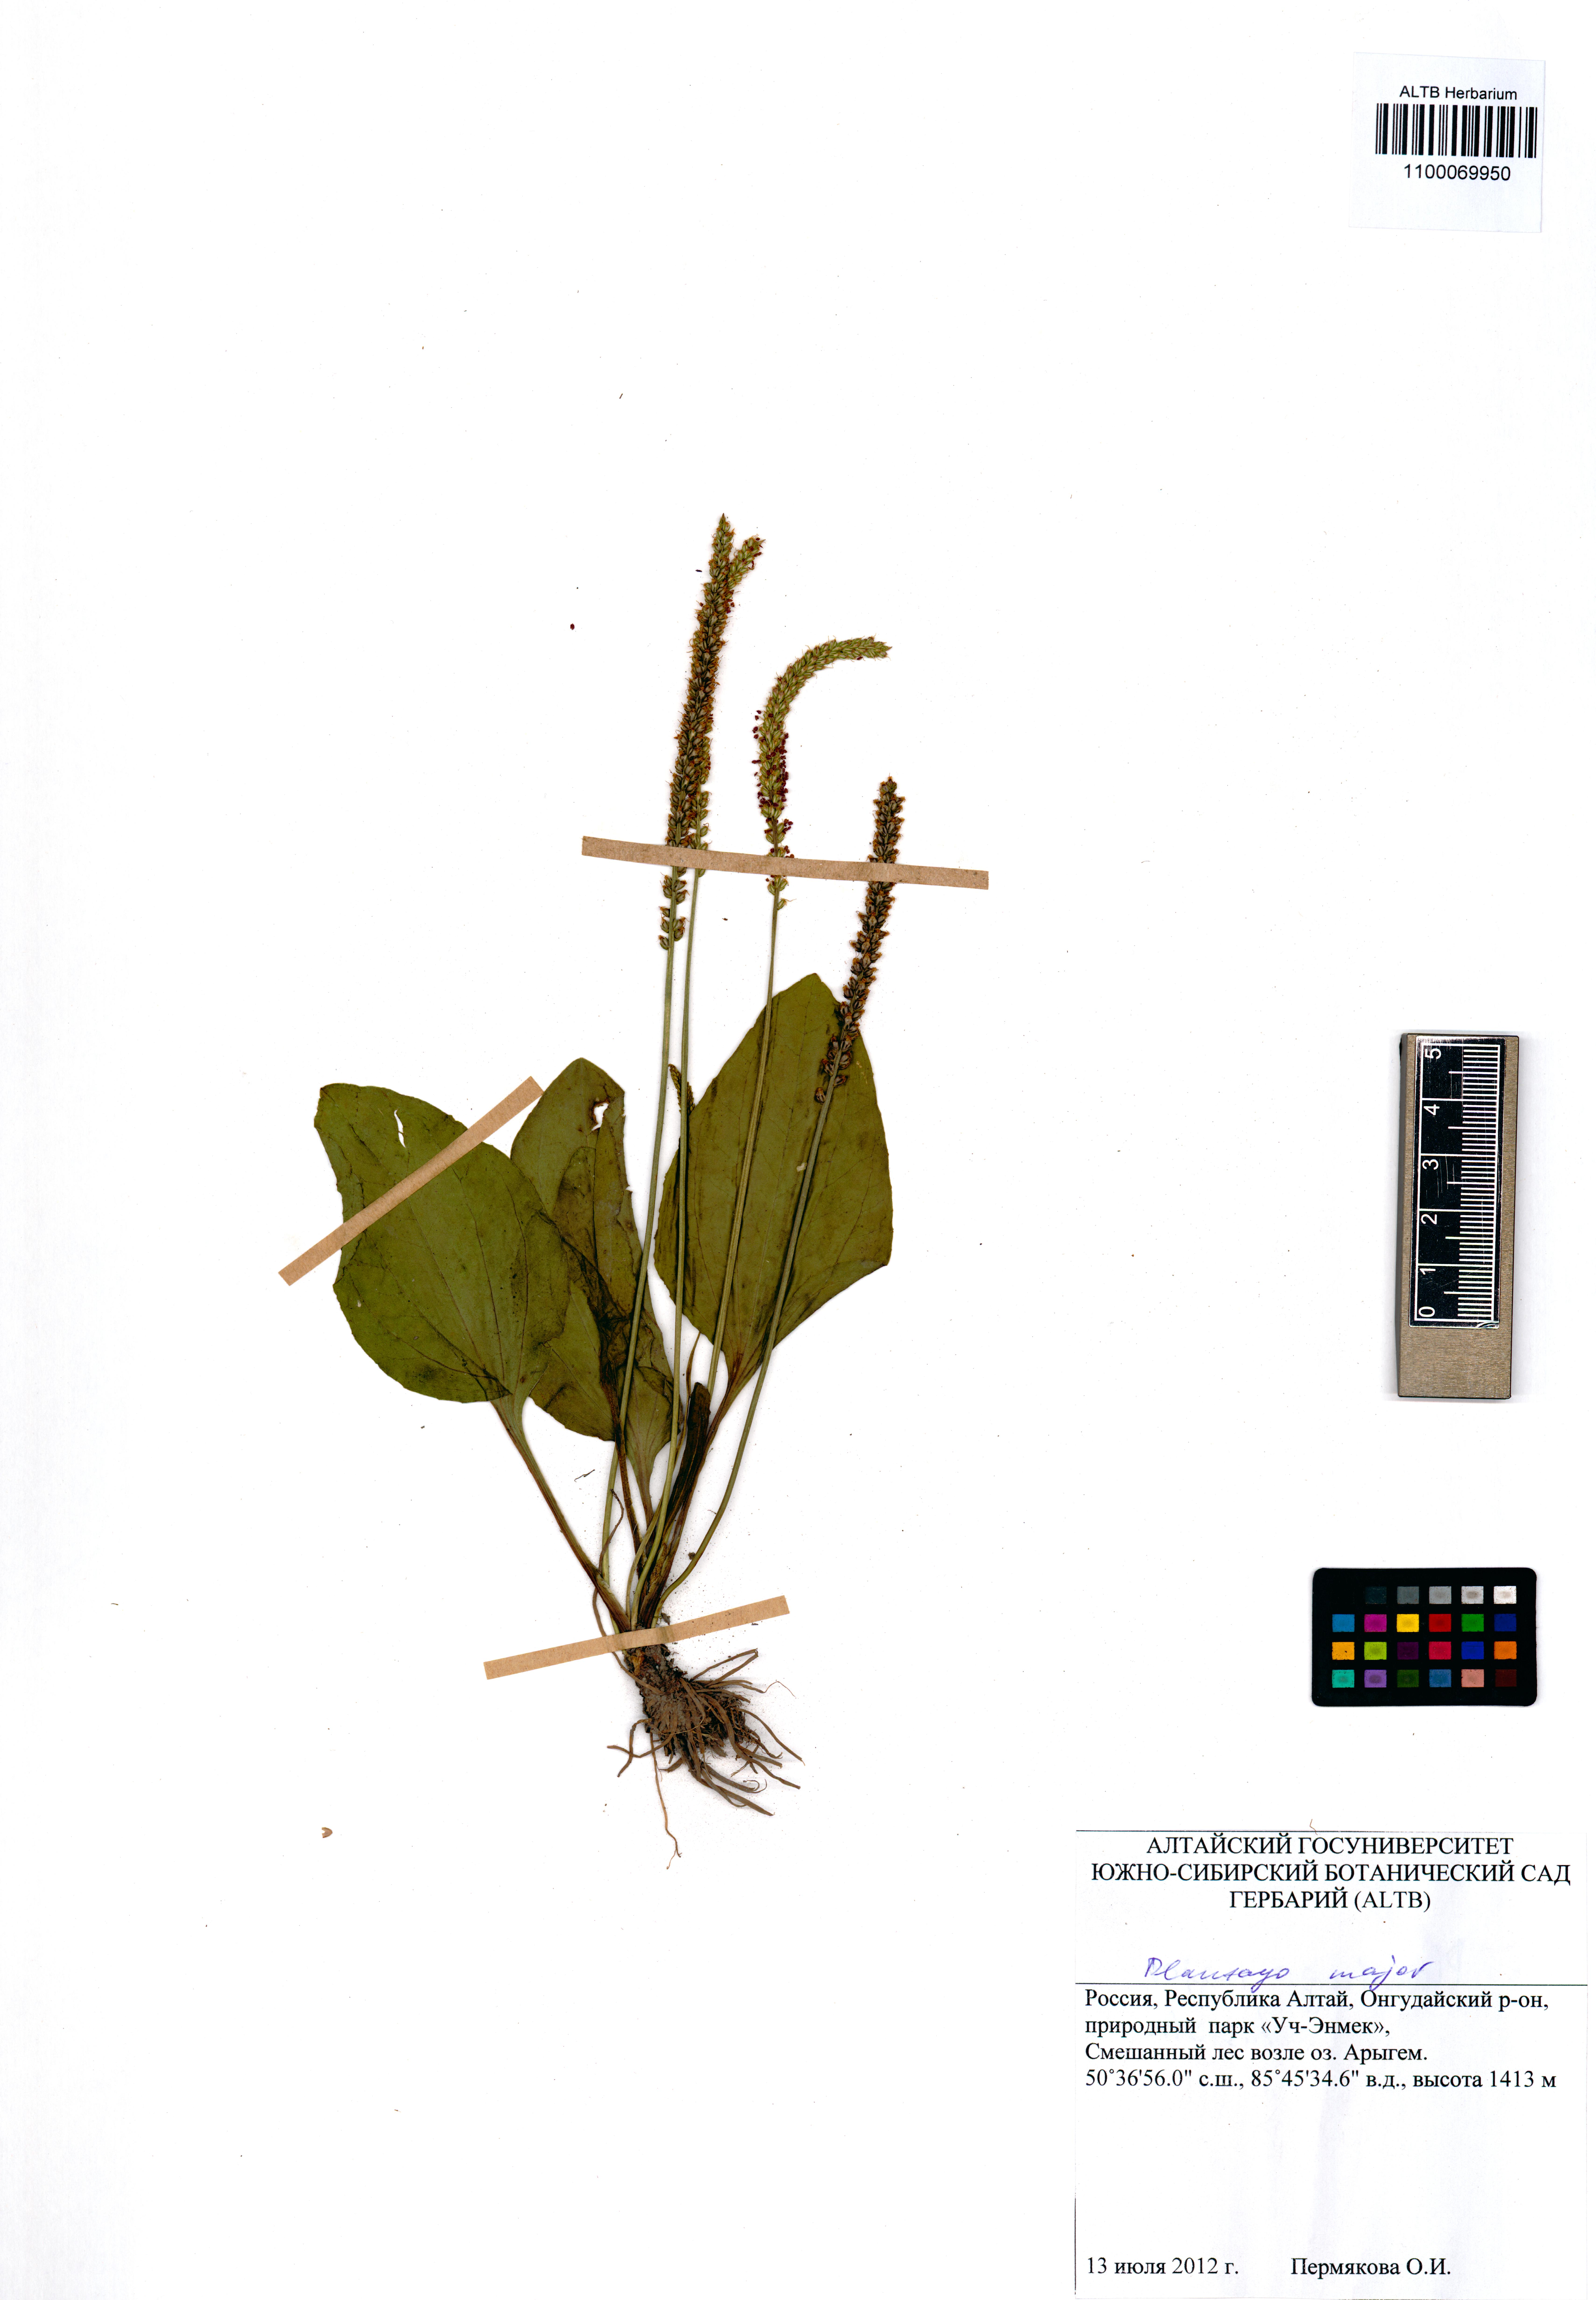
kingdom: Plantae
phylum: Tracheophyta
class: Magnoliopsida
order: Lamiales
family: Plantaginaceae
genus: Plantago
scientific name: Plantago major
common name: Common plantain
